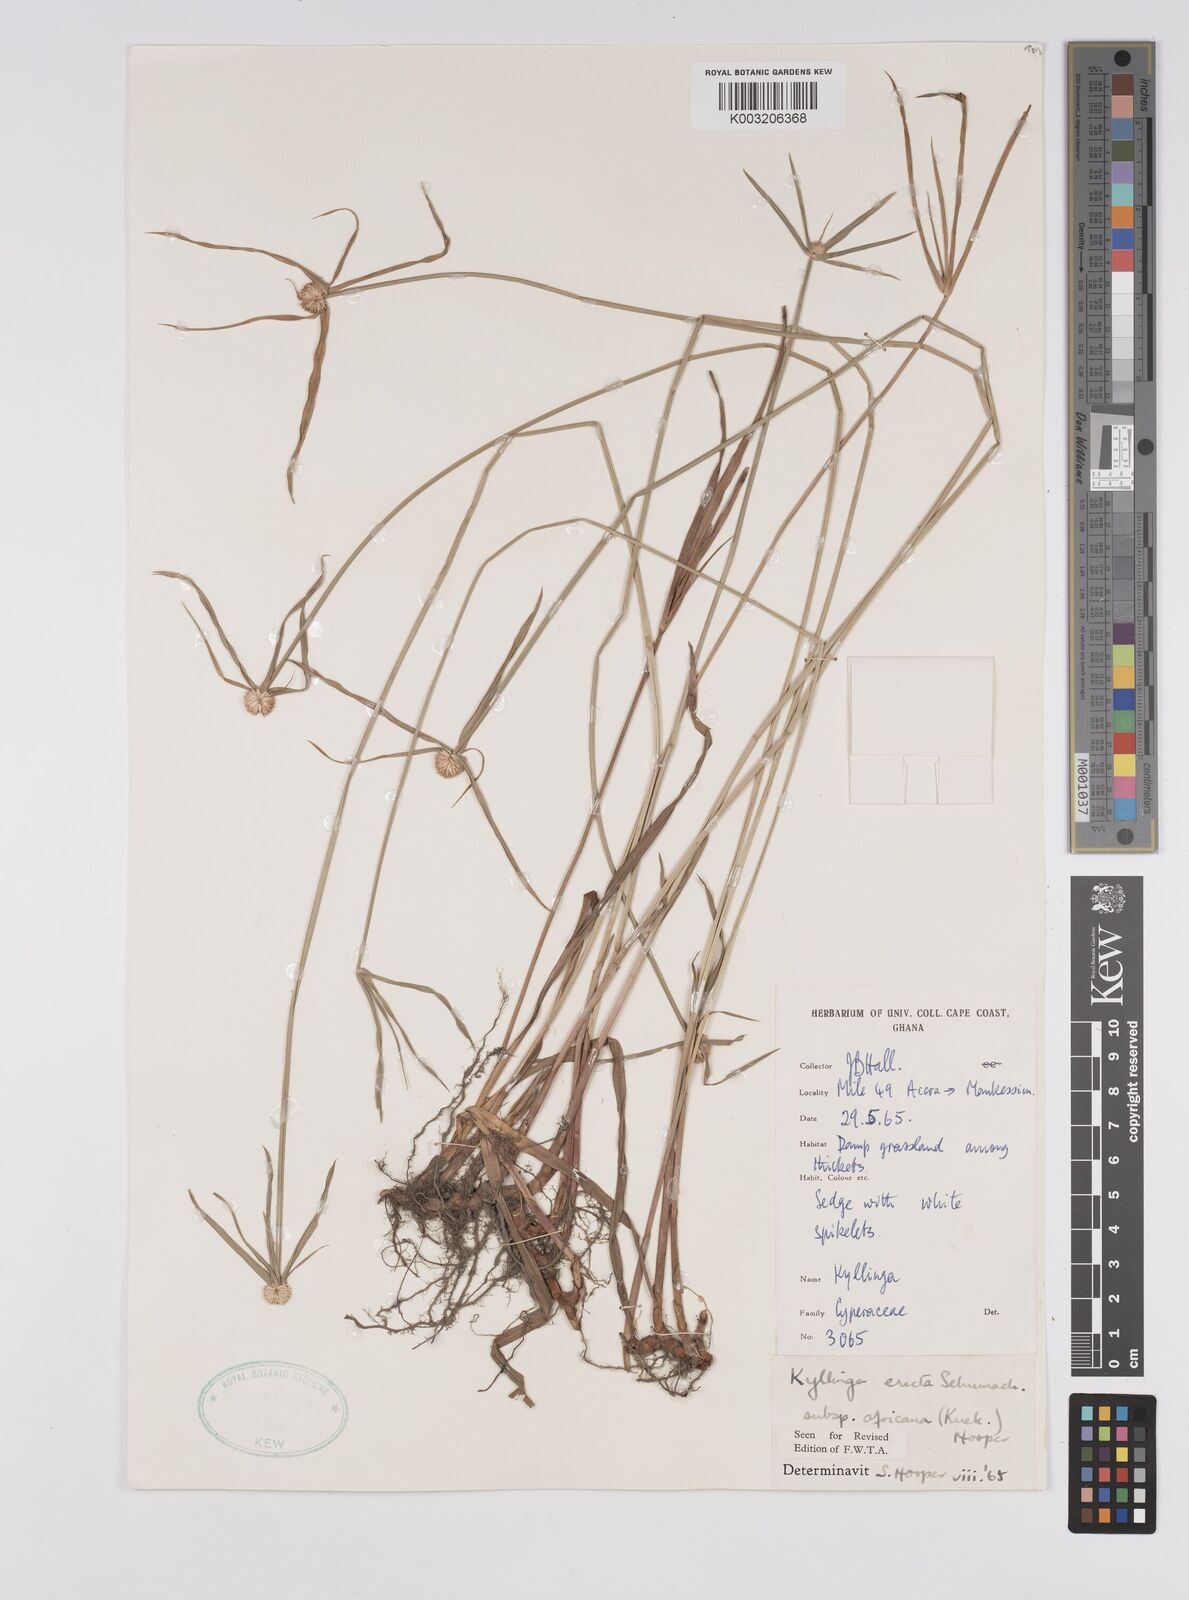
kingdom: Plantae
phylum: Tracheophyta
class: Liliopsida
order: Poales
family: Cyperaceae
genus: Cyperus
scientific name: Cyperus erectus
